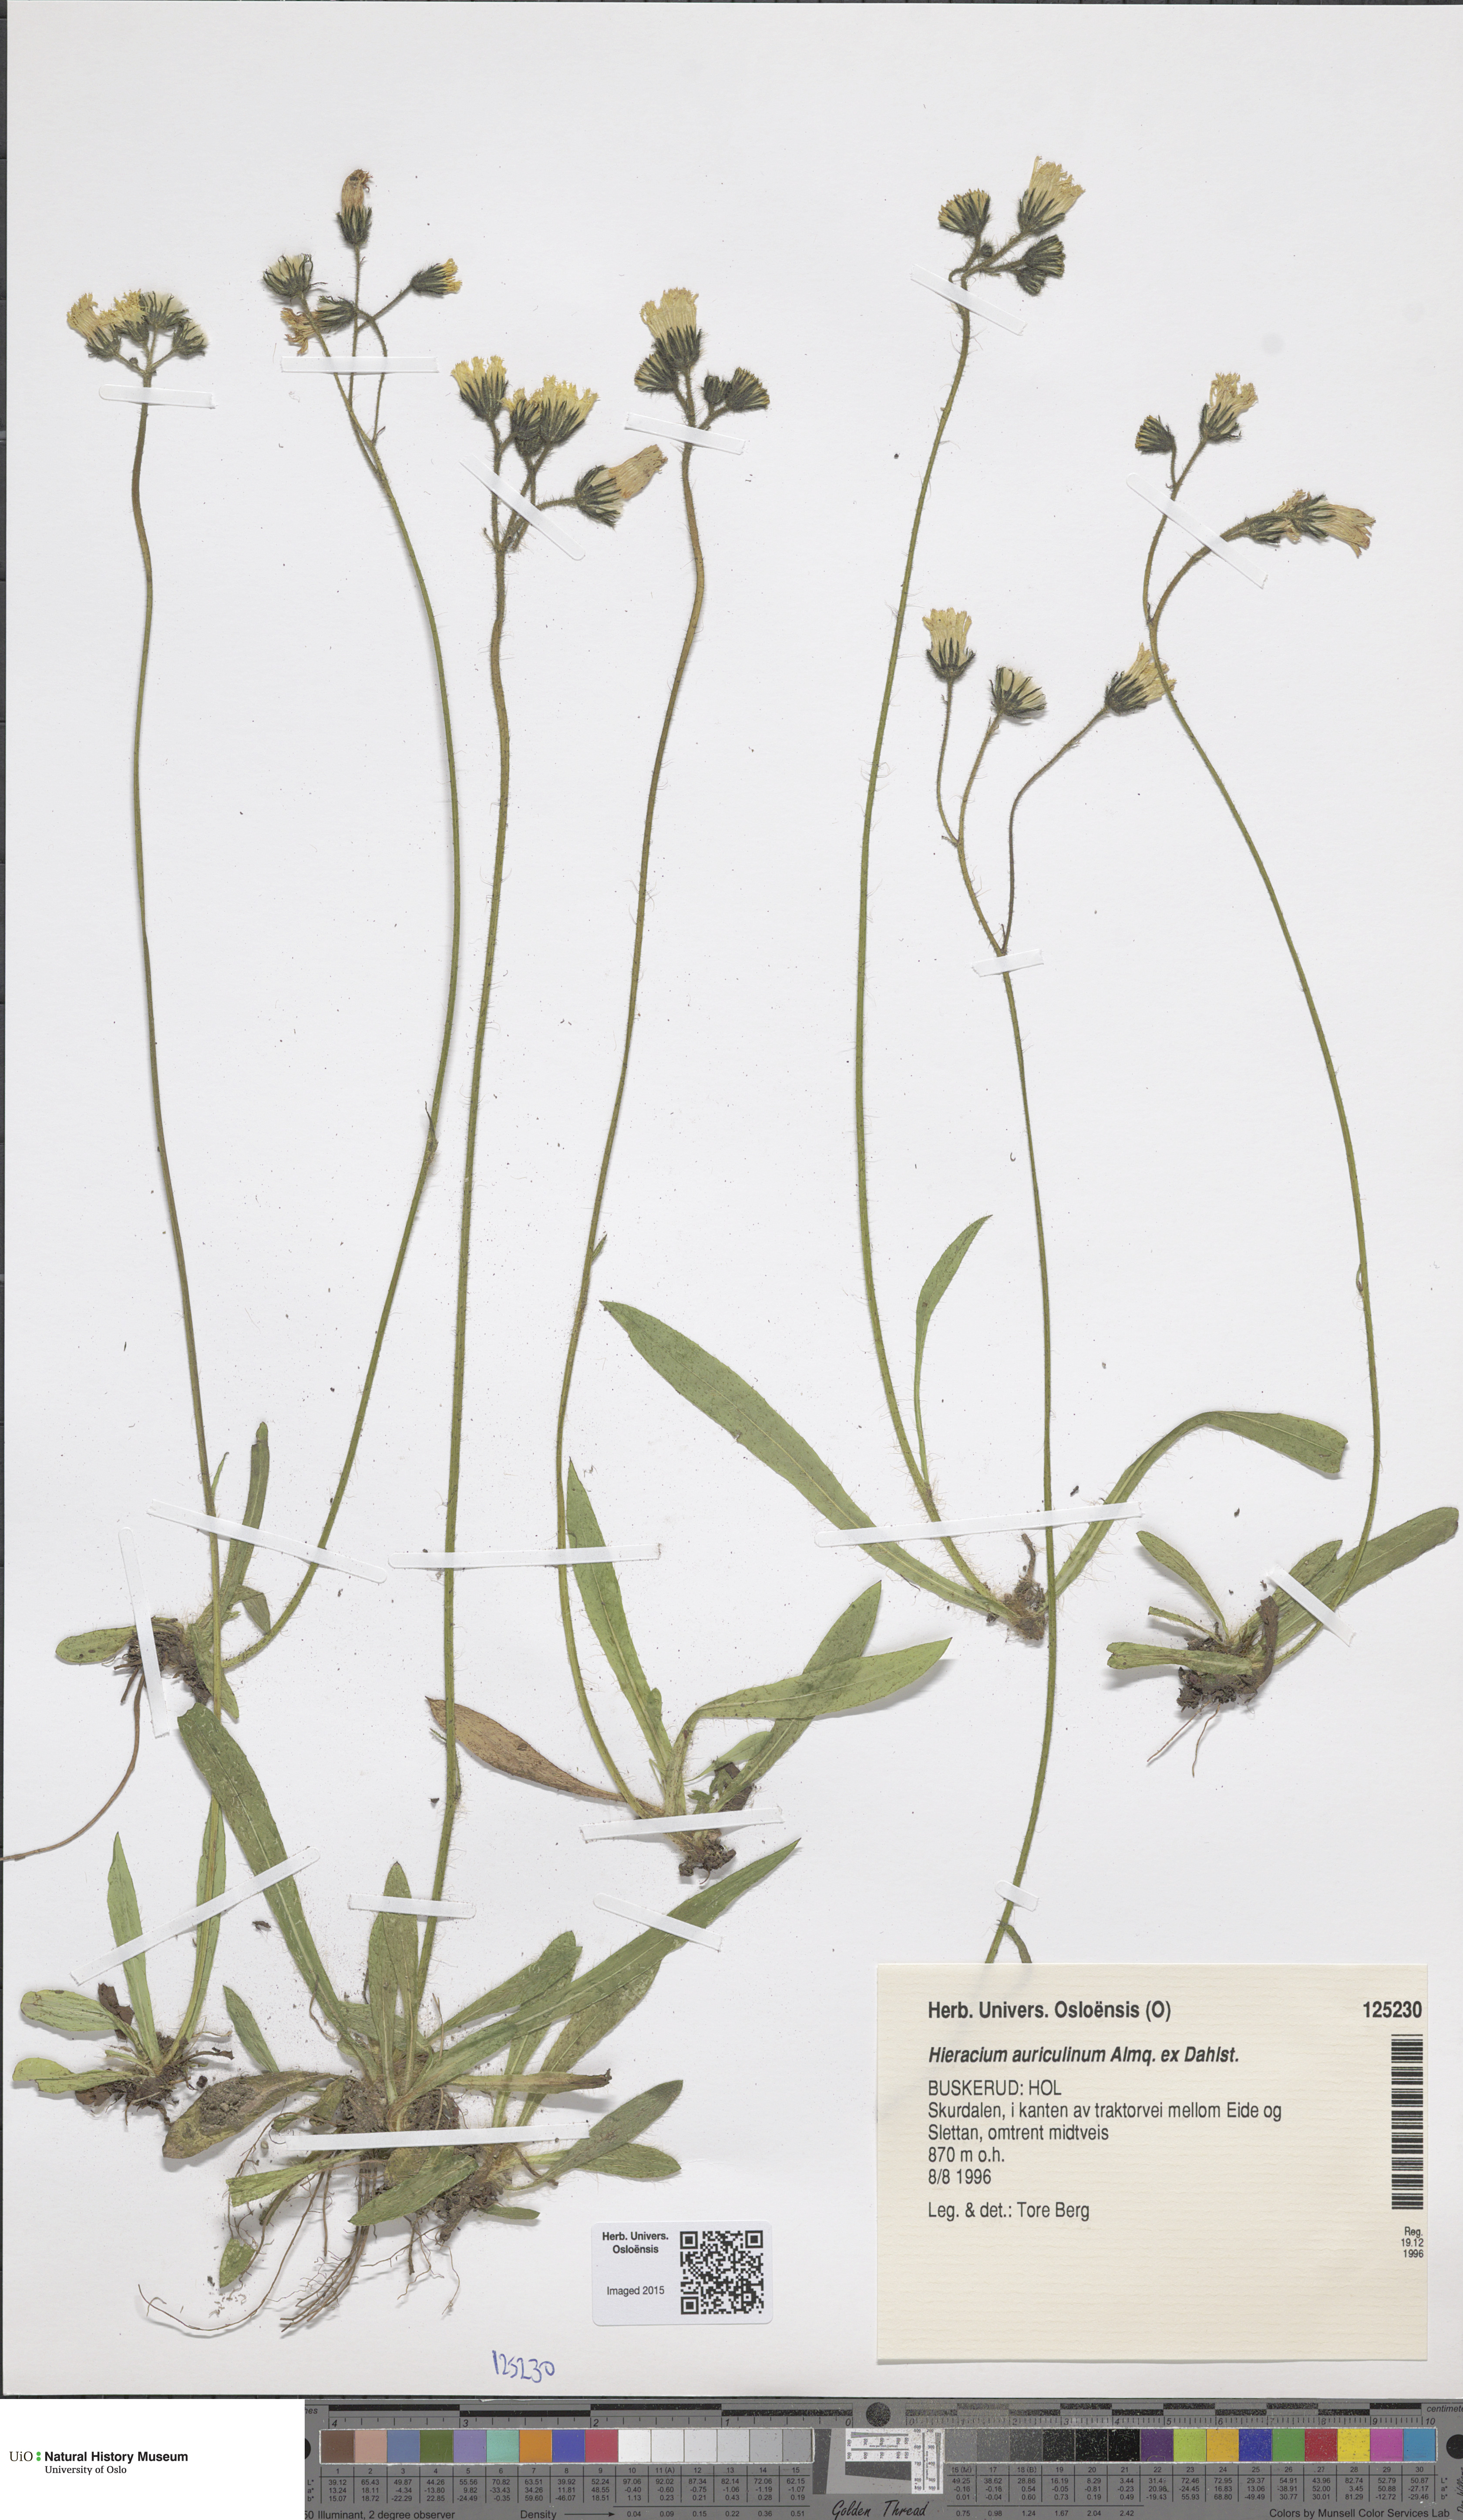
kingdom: Plantae
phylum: Tracheophyta
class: Magnoliopsida
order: Asterales
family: Asteraceae
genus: Pilosella
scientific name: Pilosella dubia
